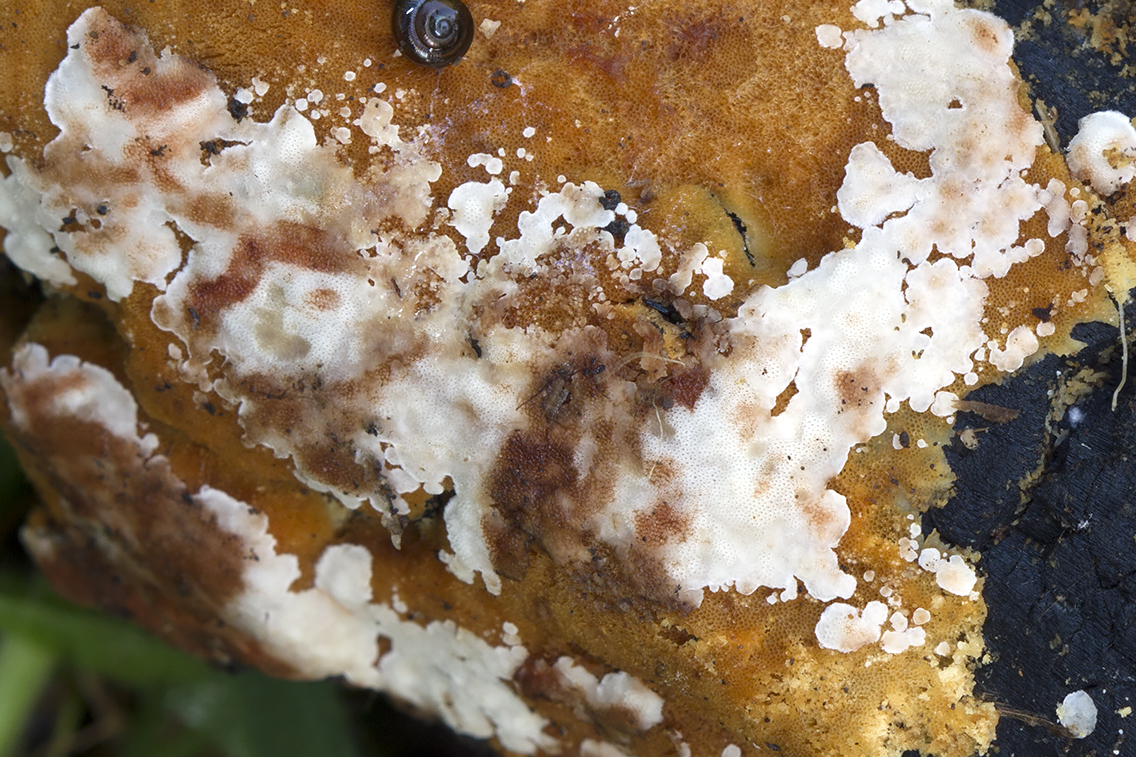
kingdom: Fungi
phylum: Basidiomycota
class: Agaricomycetes
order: Polyporales
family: Meripilaceae
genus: Rigidoporus
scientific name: Rigidoporus sanguinolentus
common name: blod-skorpeporesvamp
